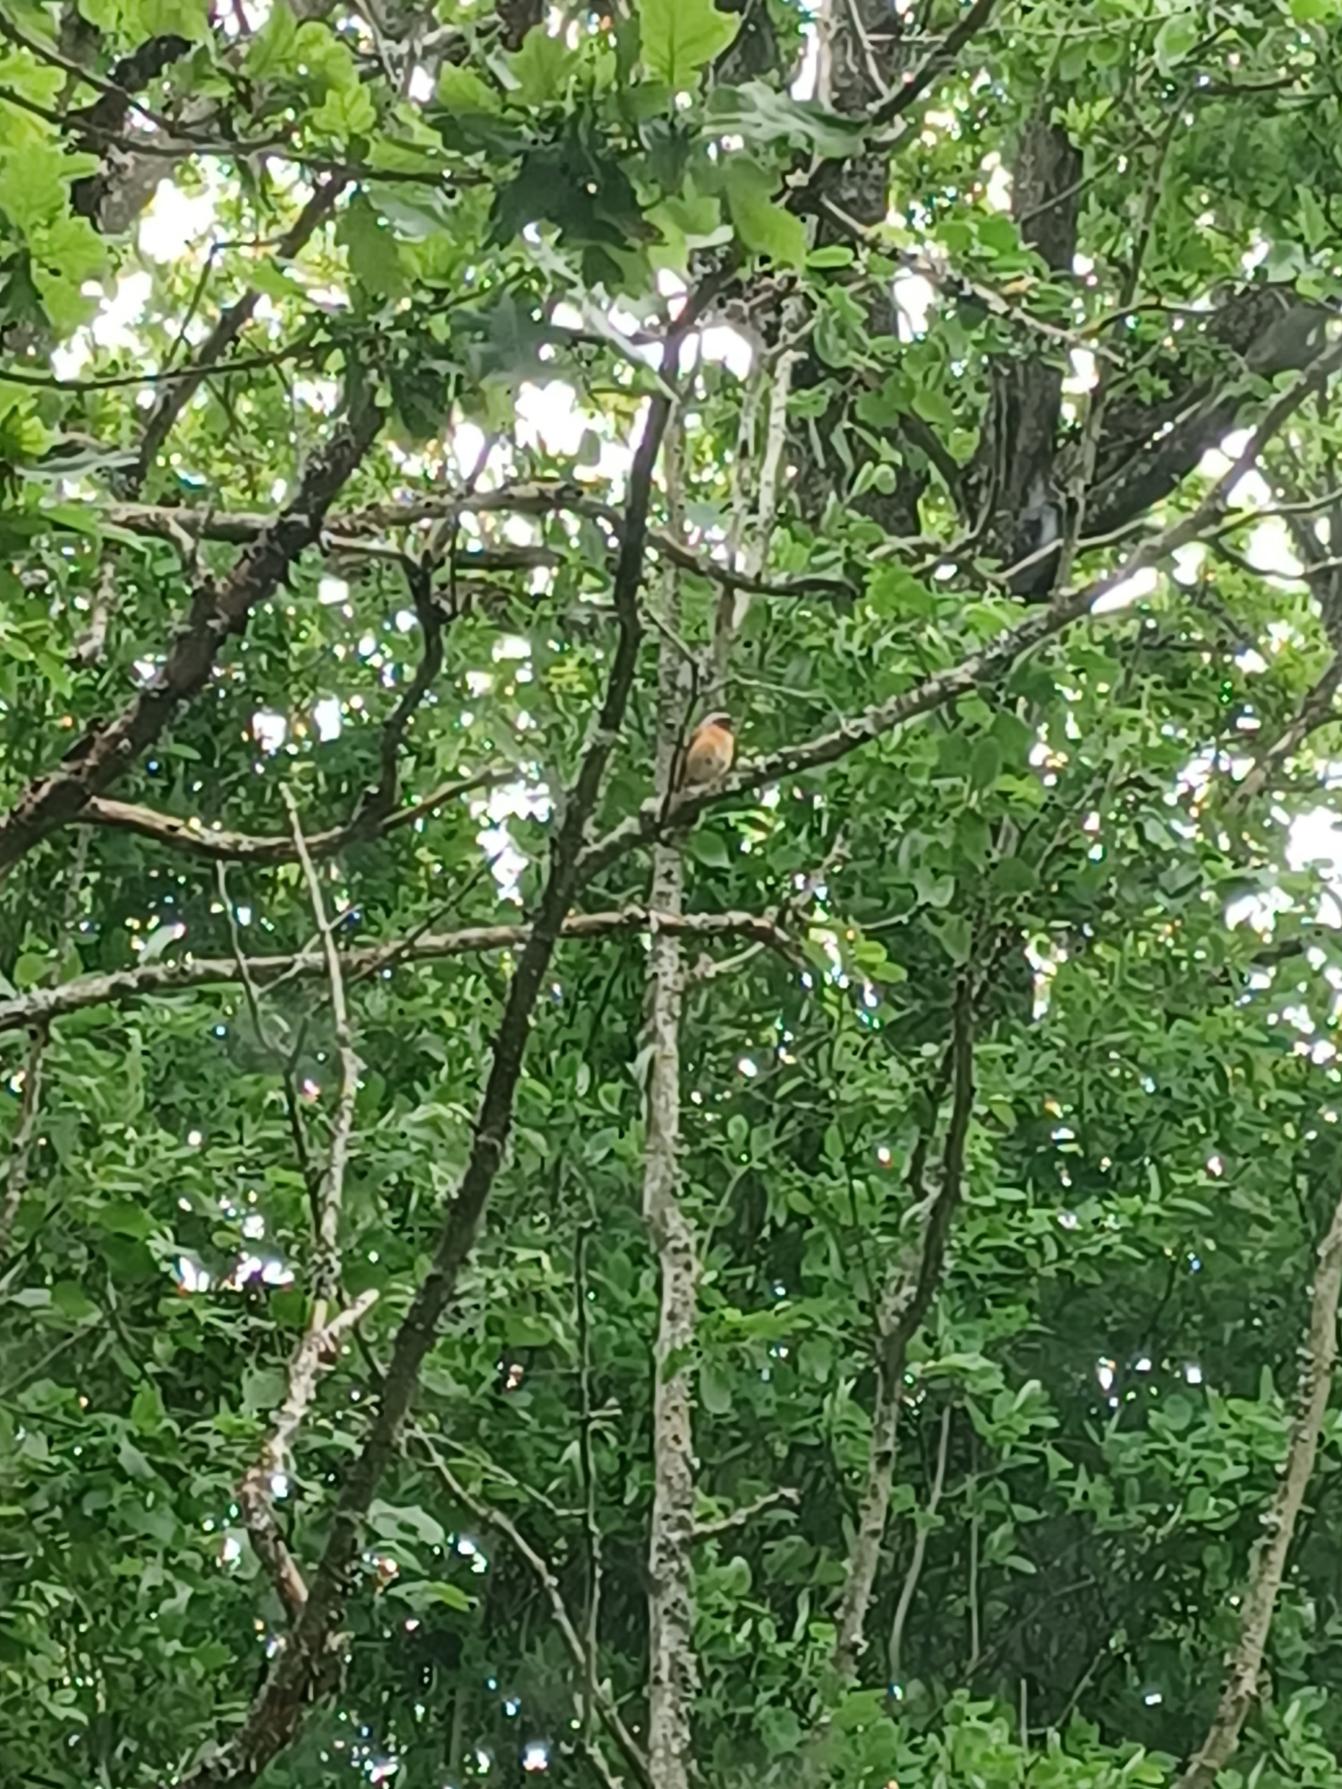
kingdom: Animalia
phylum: Chordata
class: Aves
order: Passeriformes
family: Muscicapidae
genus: Phoenicurus
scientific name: Phoenicurus phoenicurus
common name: Rødstjert
